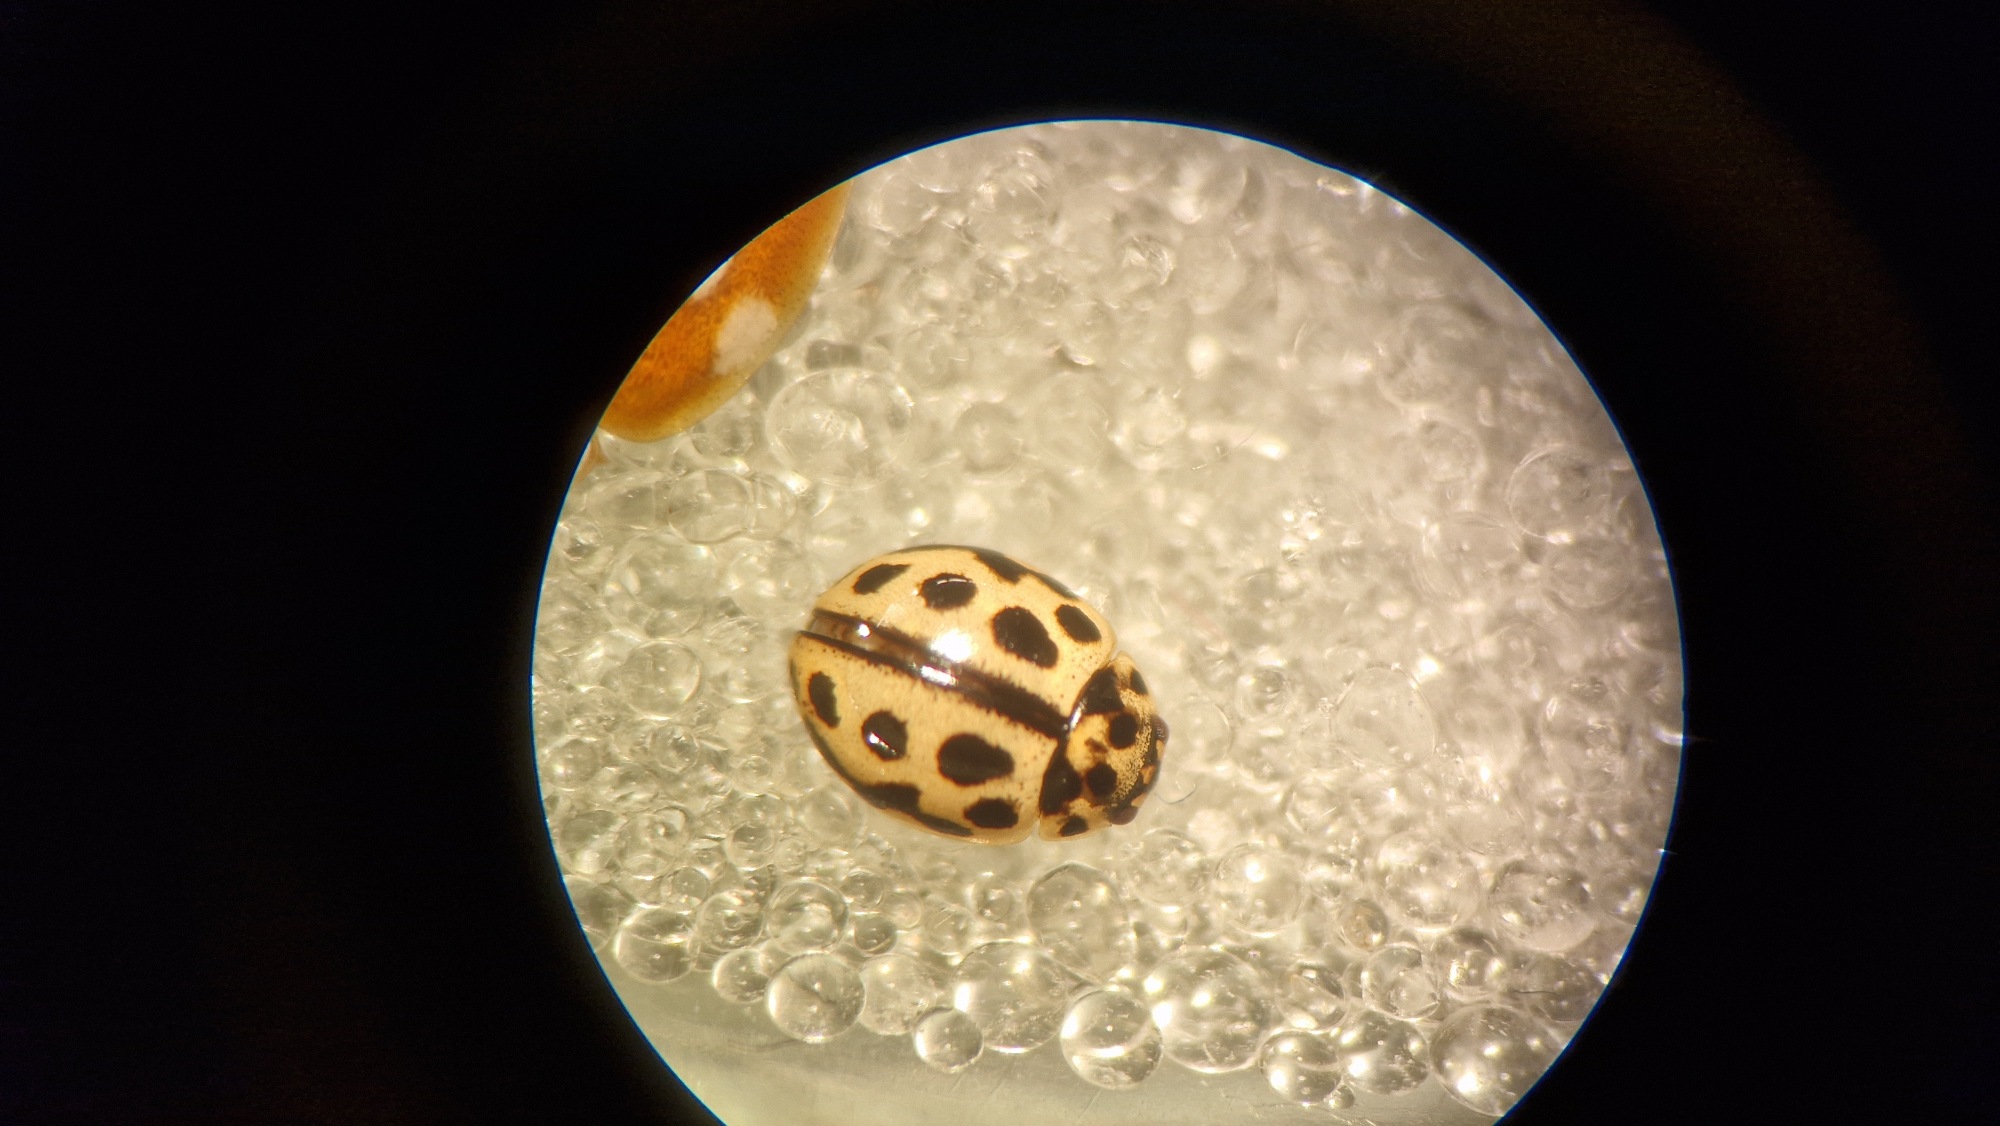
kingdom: Animalia
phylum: Arthropoda
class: Insecta
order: Coleoptera
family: Coccinellidae
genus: Tytthaspis
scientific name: Tytthaspis sedecimpunctata
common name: Sekstenprikket mariehøne
